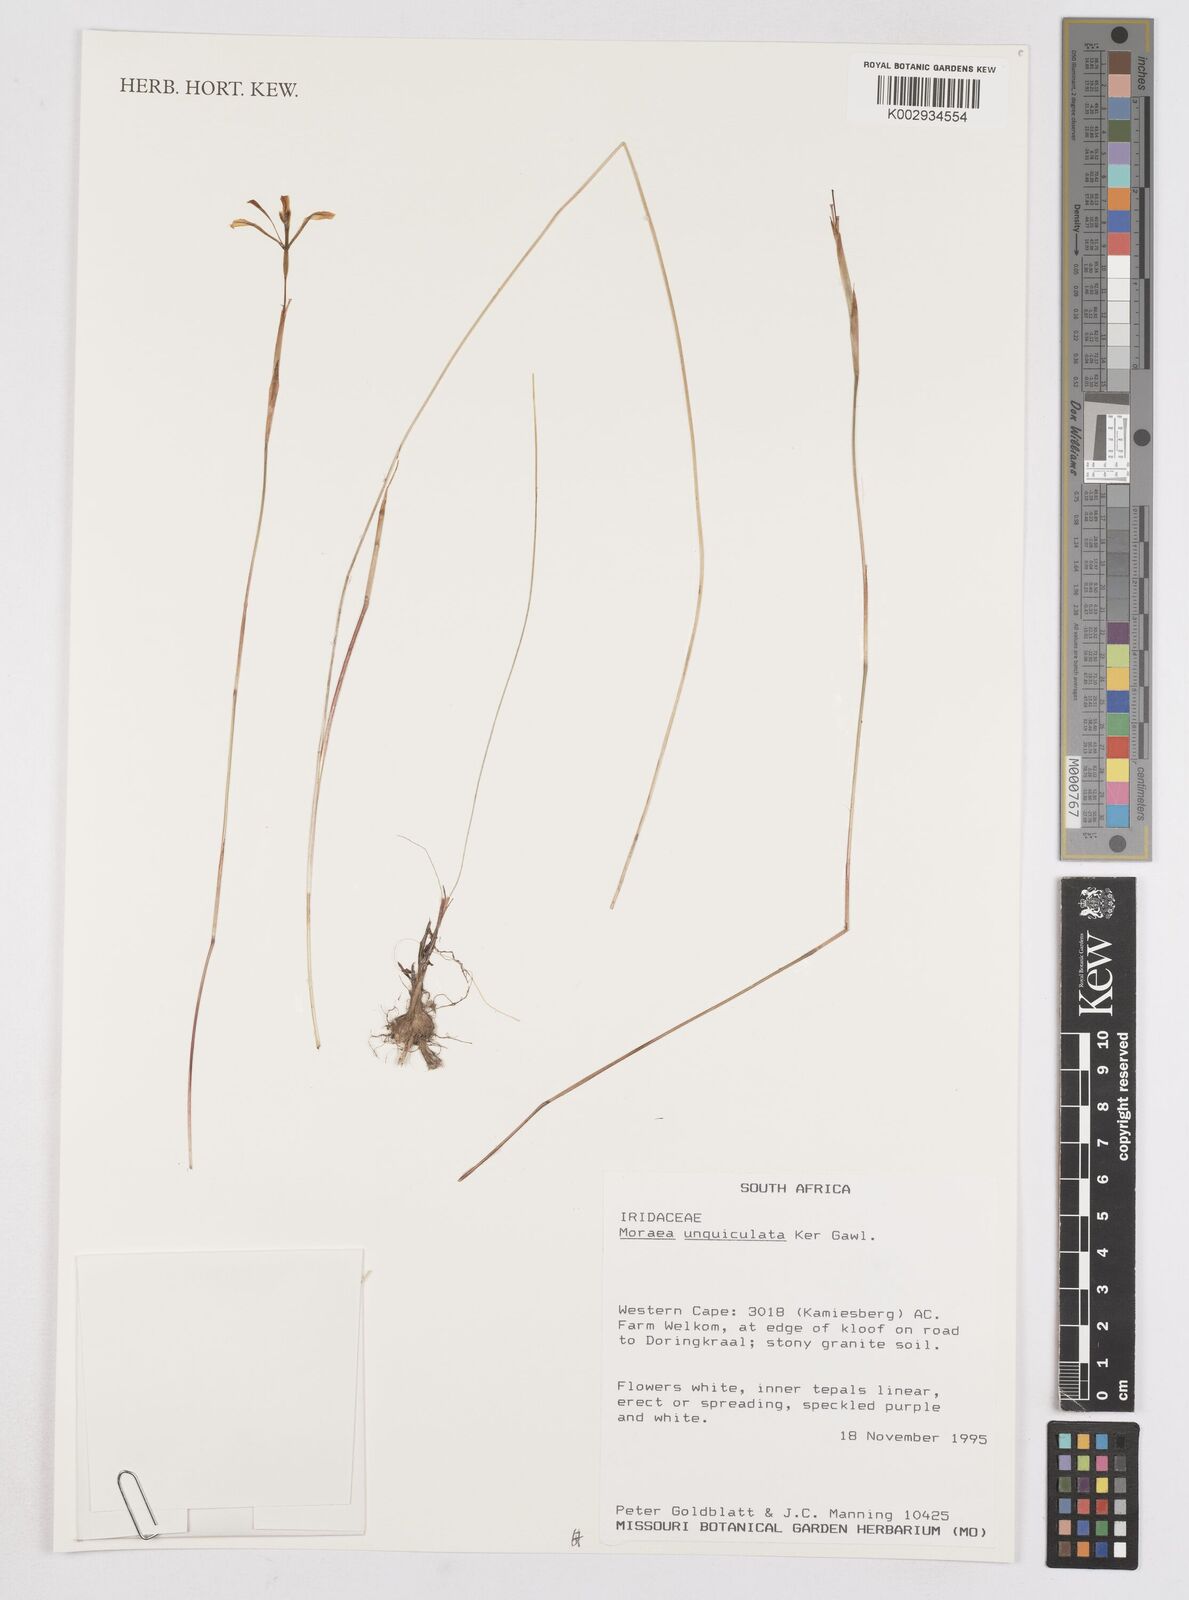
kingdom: Plantae
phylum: Tracheophyta
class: Liliopsida
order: Asparagales
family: Iridaceae
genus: Moraea
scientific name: Moraea unguiculata
